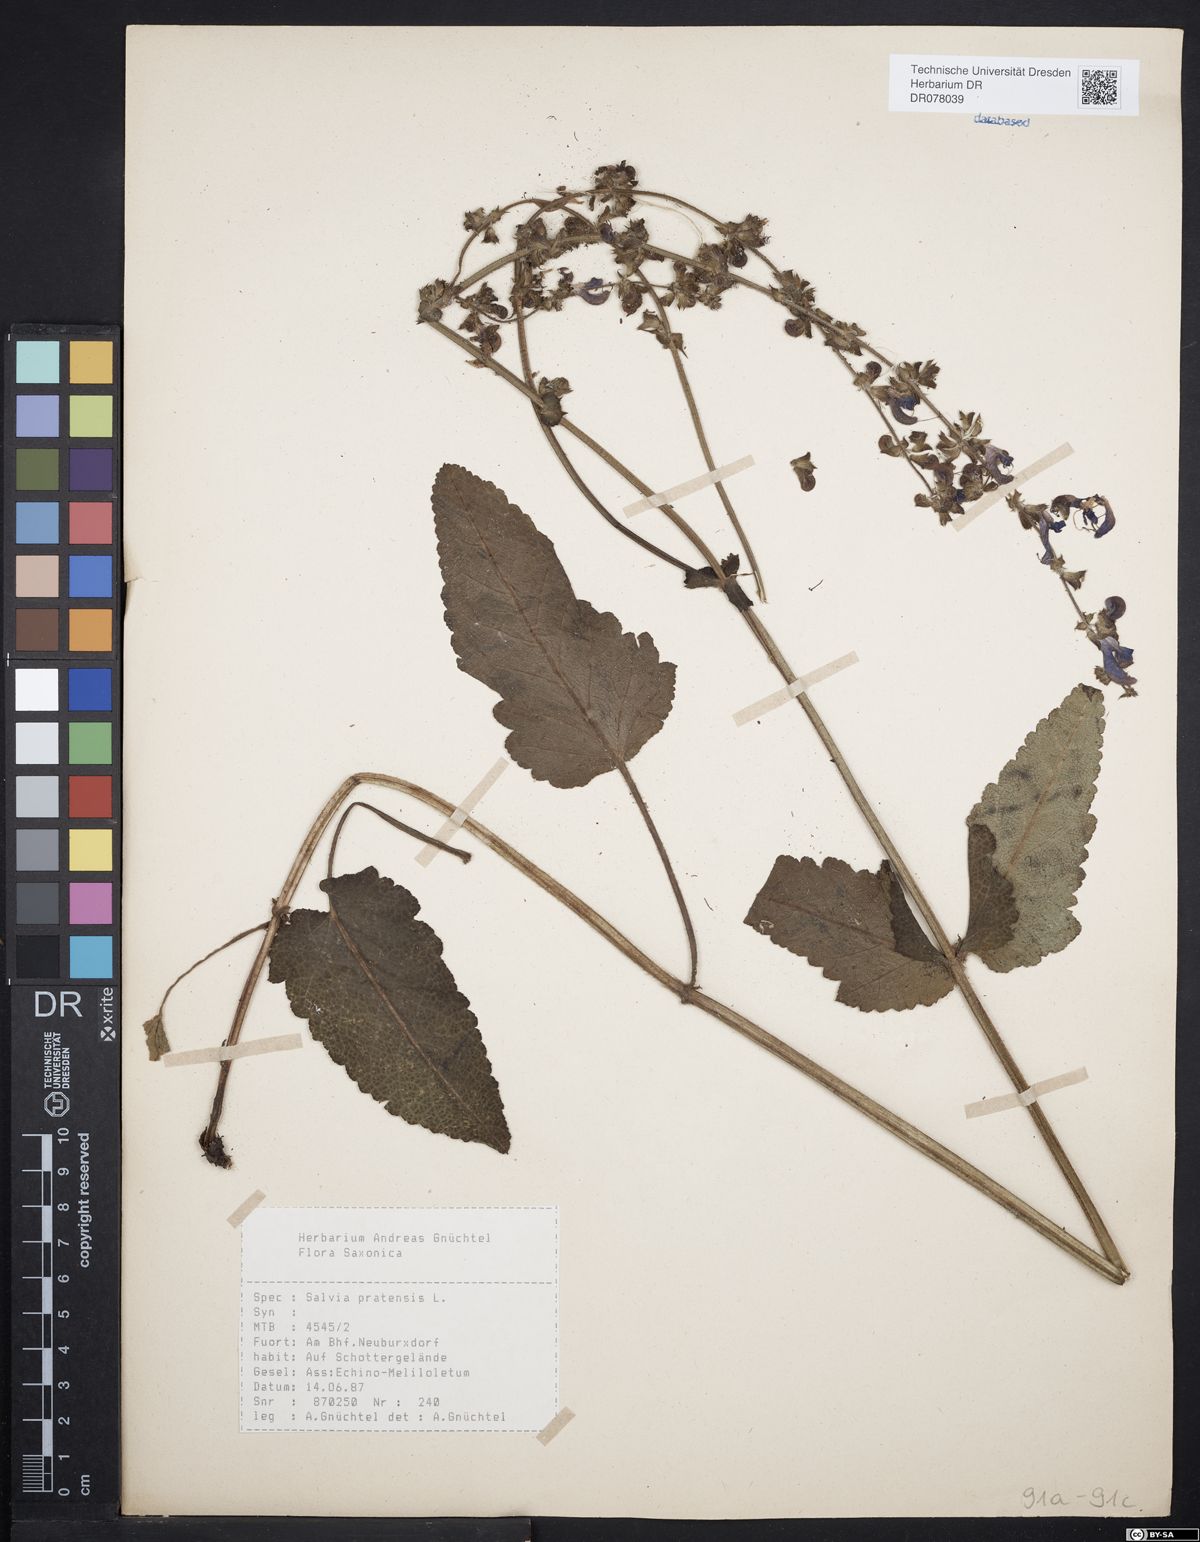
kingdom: Plantae
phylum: Tracheophyta
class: Magnoliopsida
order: Lamiales
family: Lamiaceae
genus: Salvia
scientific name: Salvia pratensis
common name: Meadow sage
